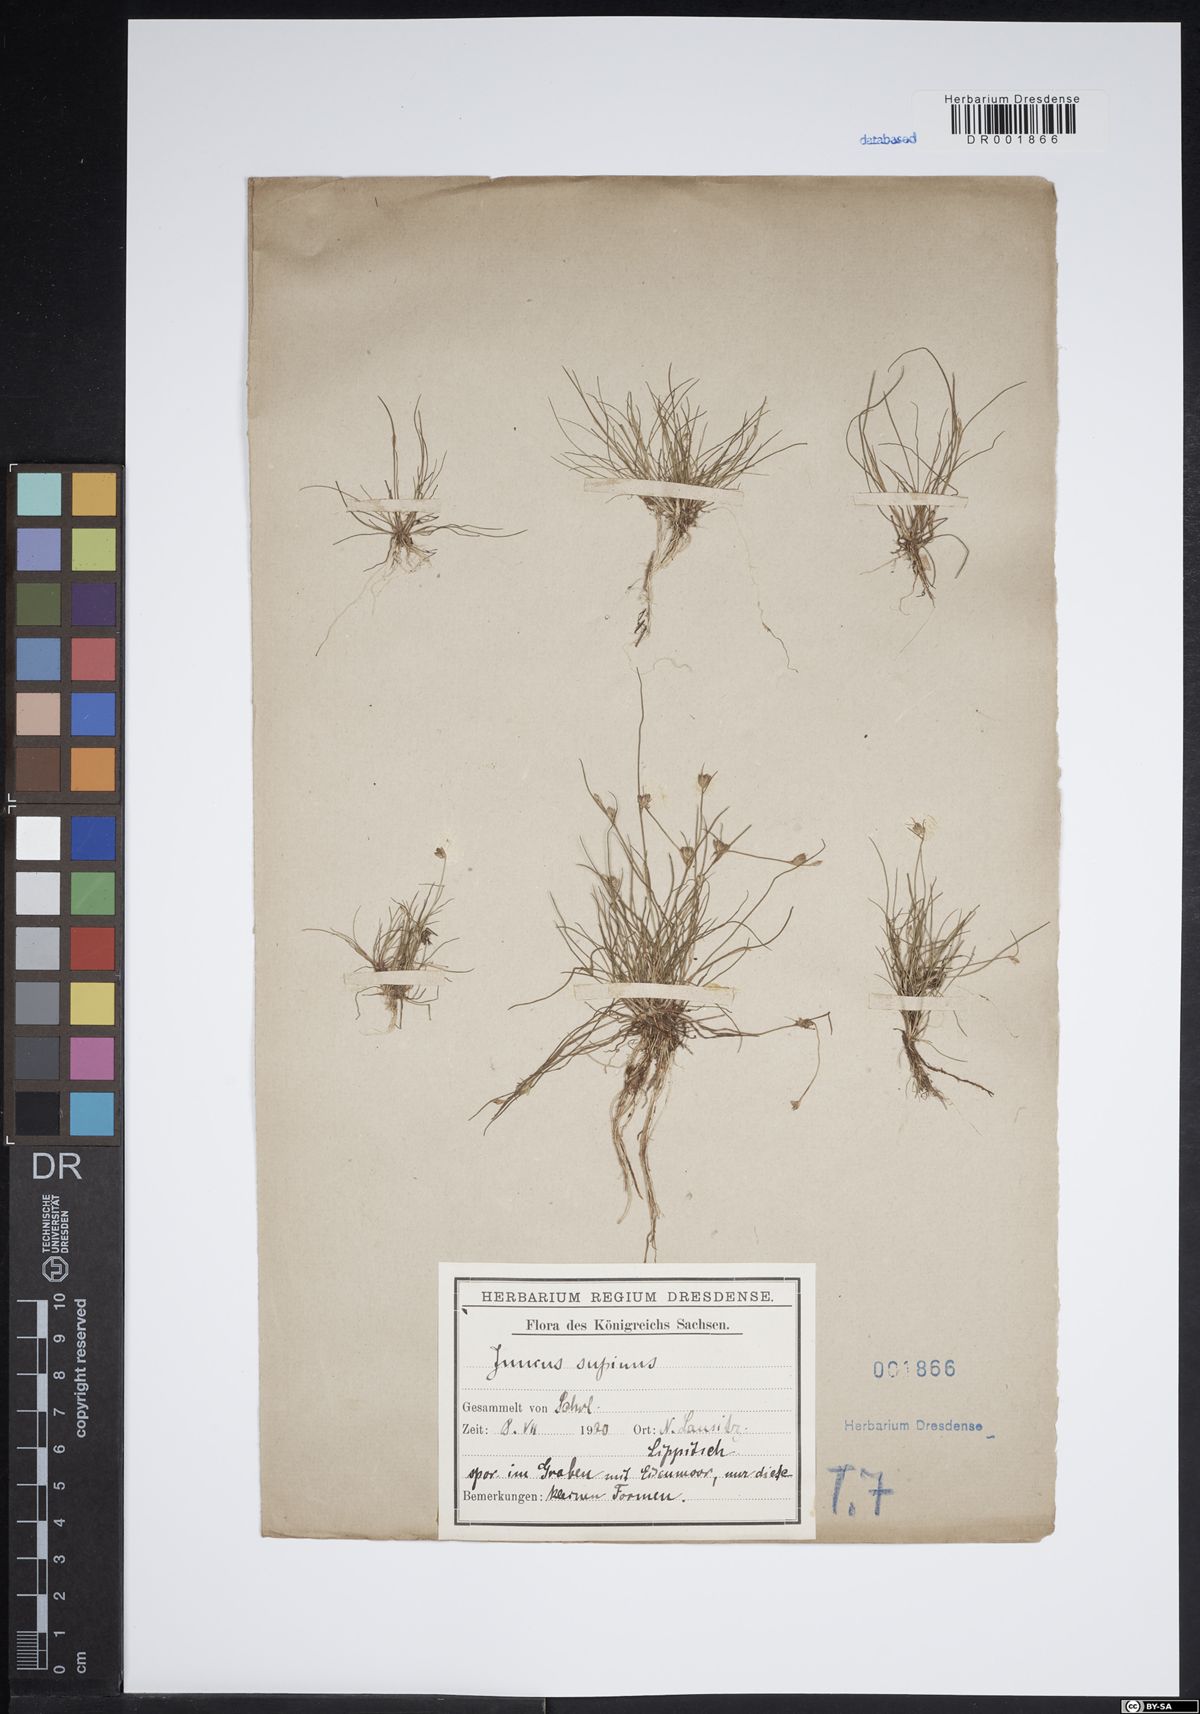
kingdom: Plantae
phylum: Tracheophyta
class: Liliopsida
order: Poales
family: Juncaceae
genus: Juncus
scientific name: Juncus bulbosus
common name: Bulbous rush
